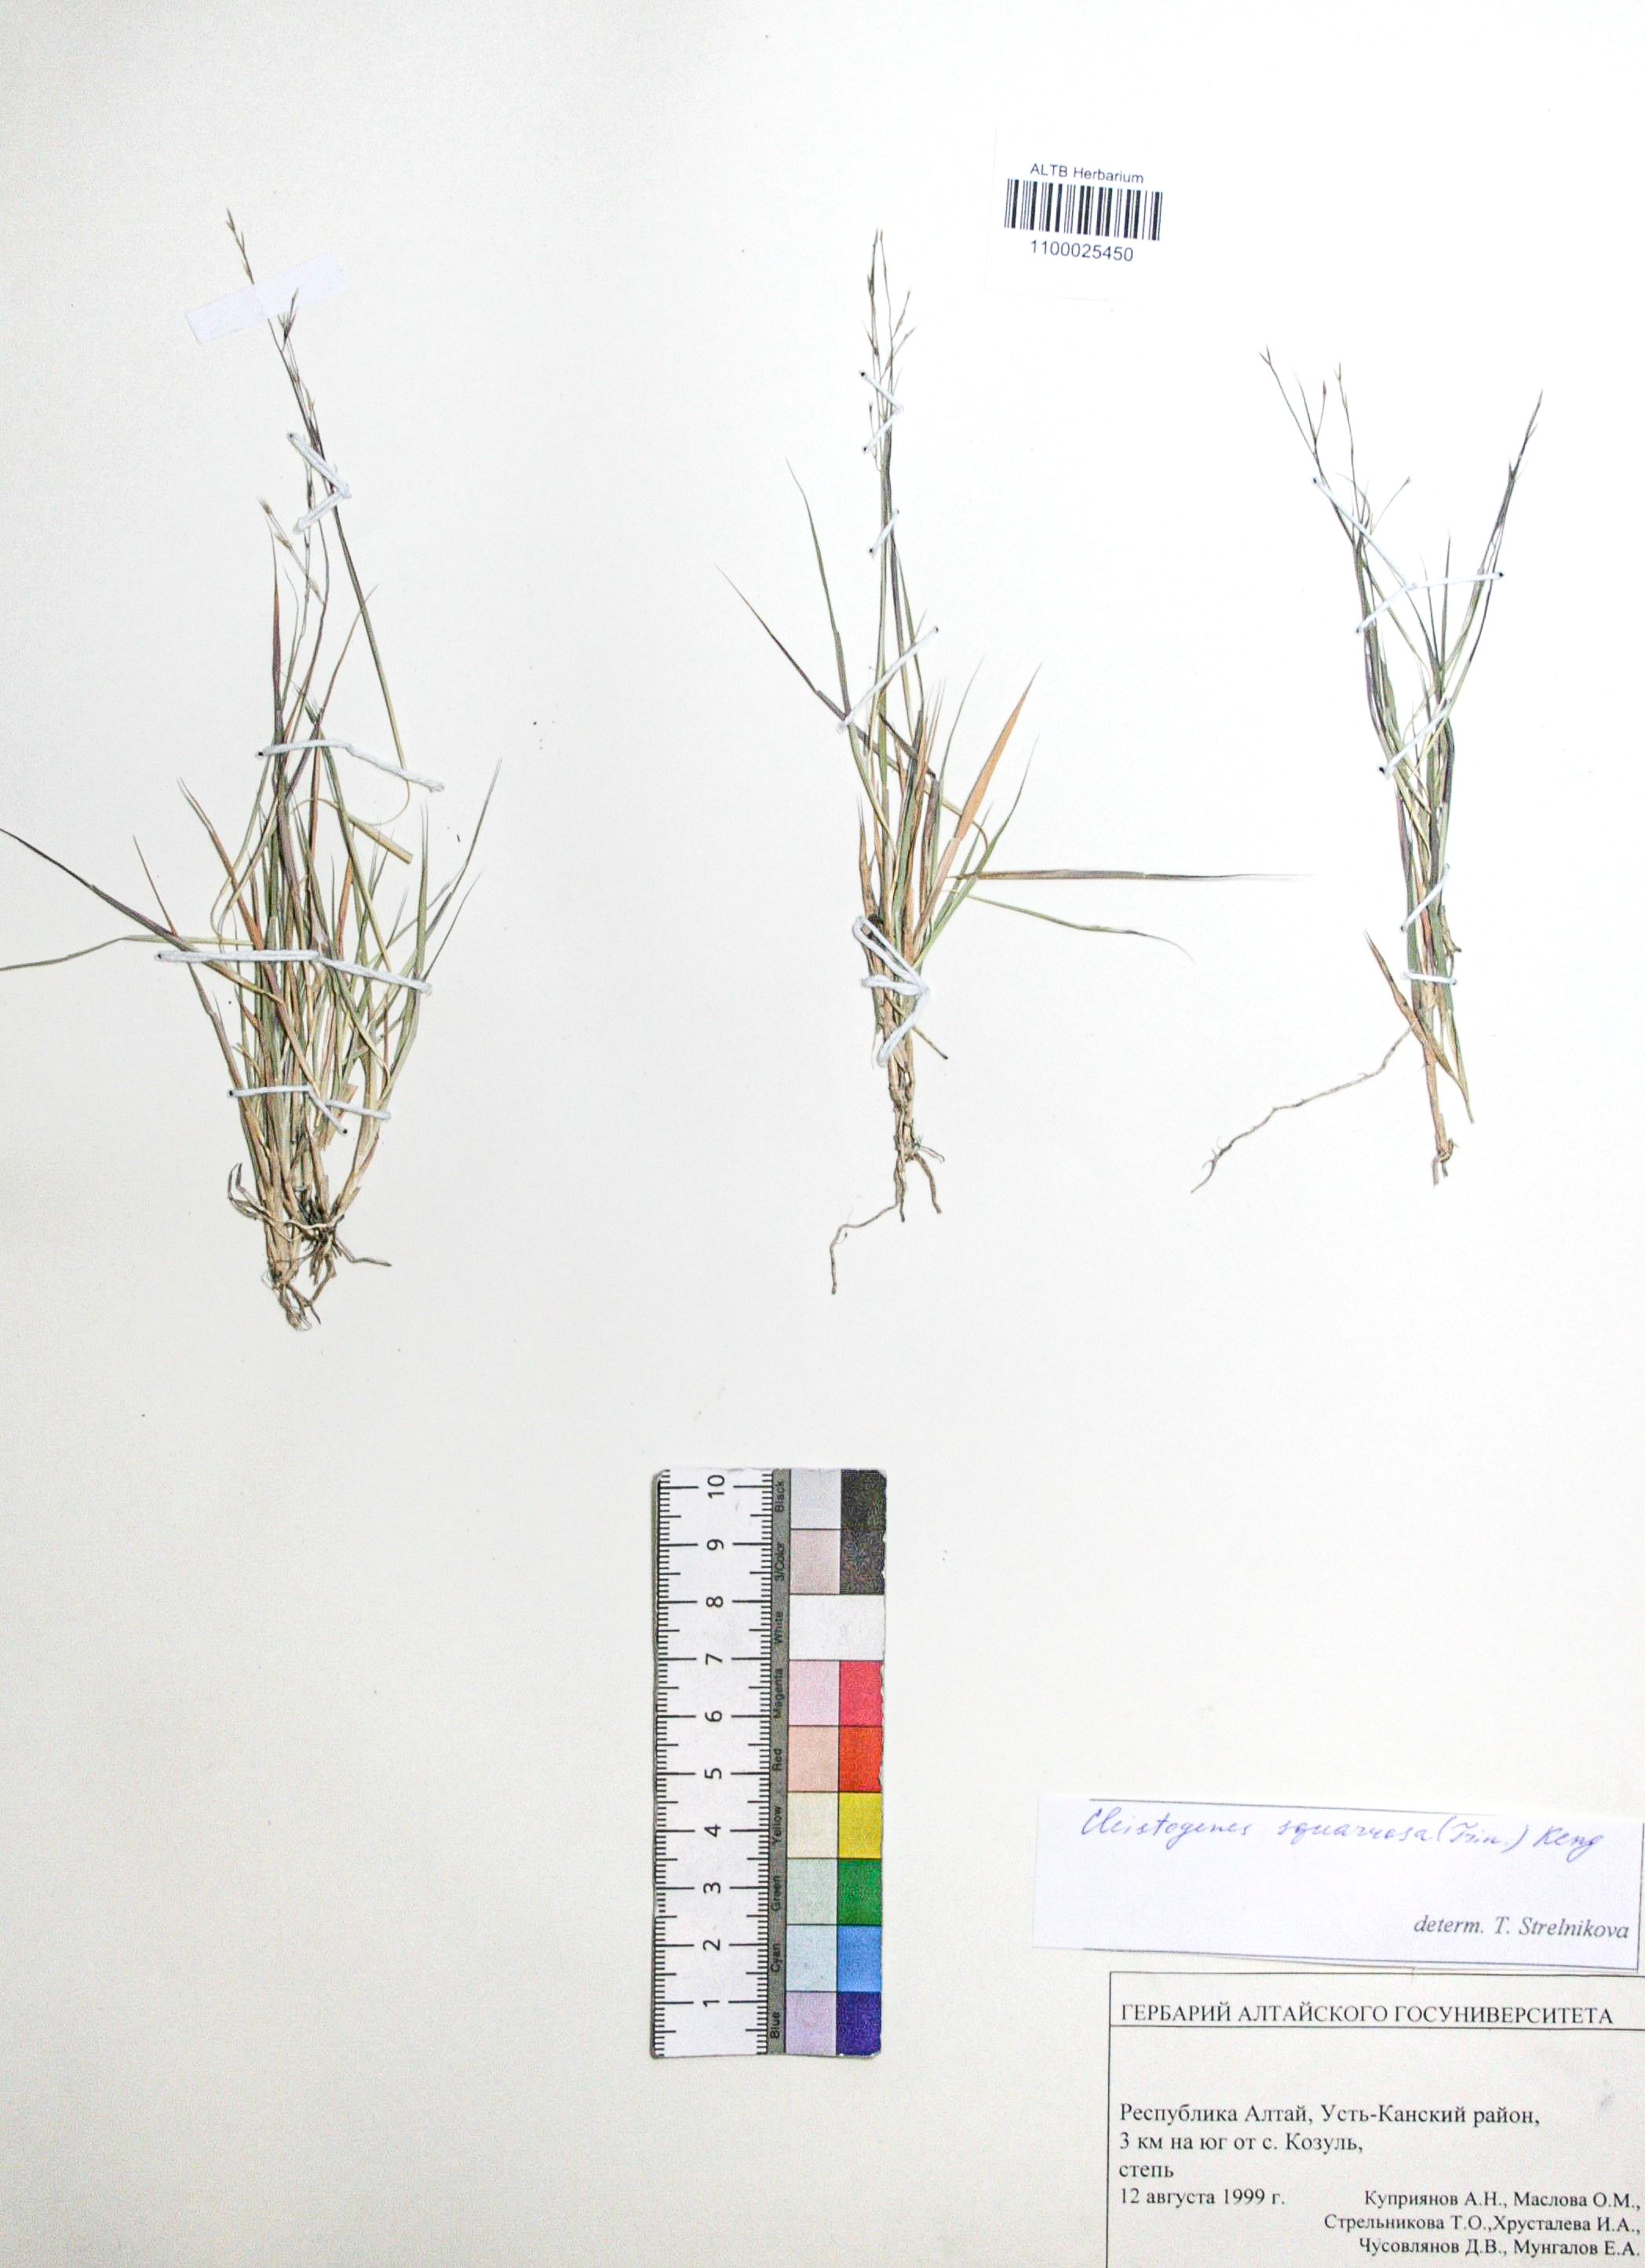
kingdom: Plantae
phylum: Tracheophyta
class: Liliopsida
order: Poales
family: Poaceae
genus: Cleistogenes
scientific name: Cleistogenes squarrosa
